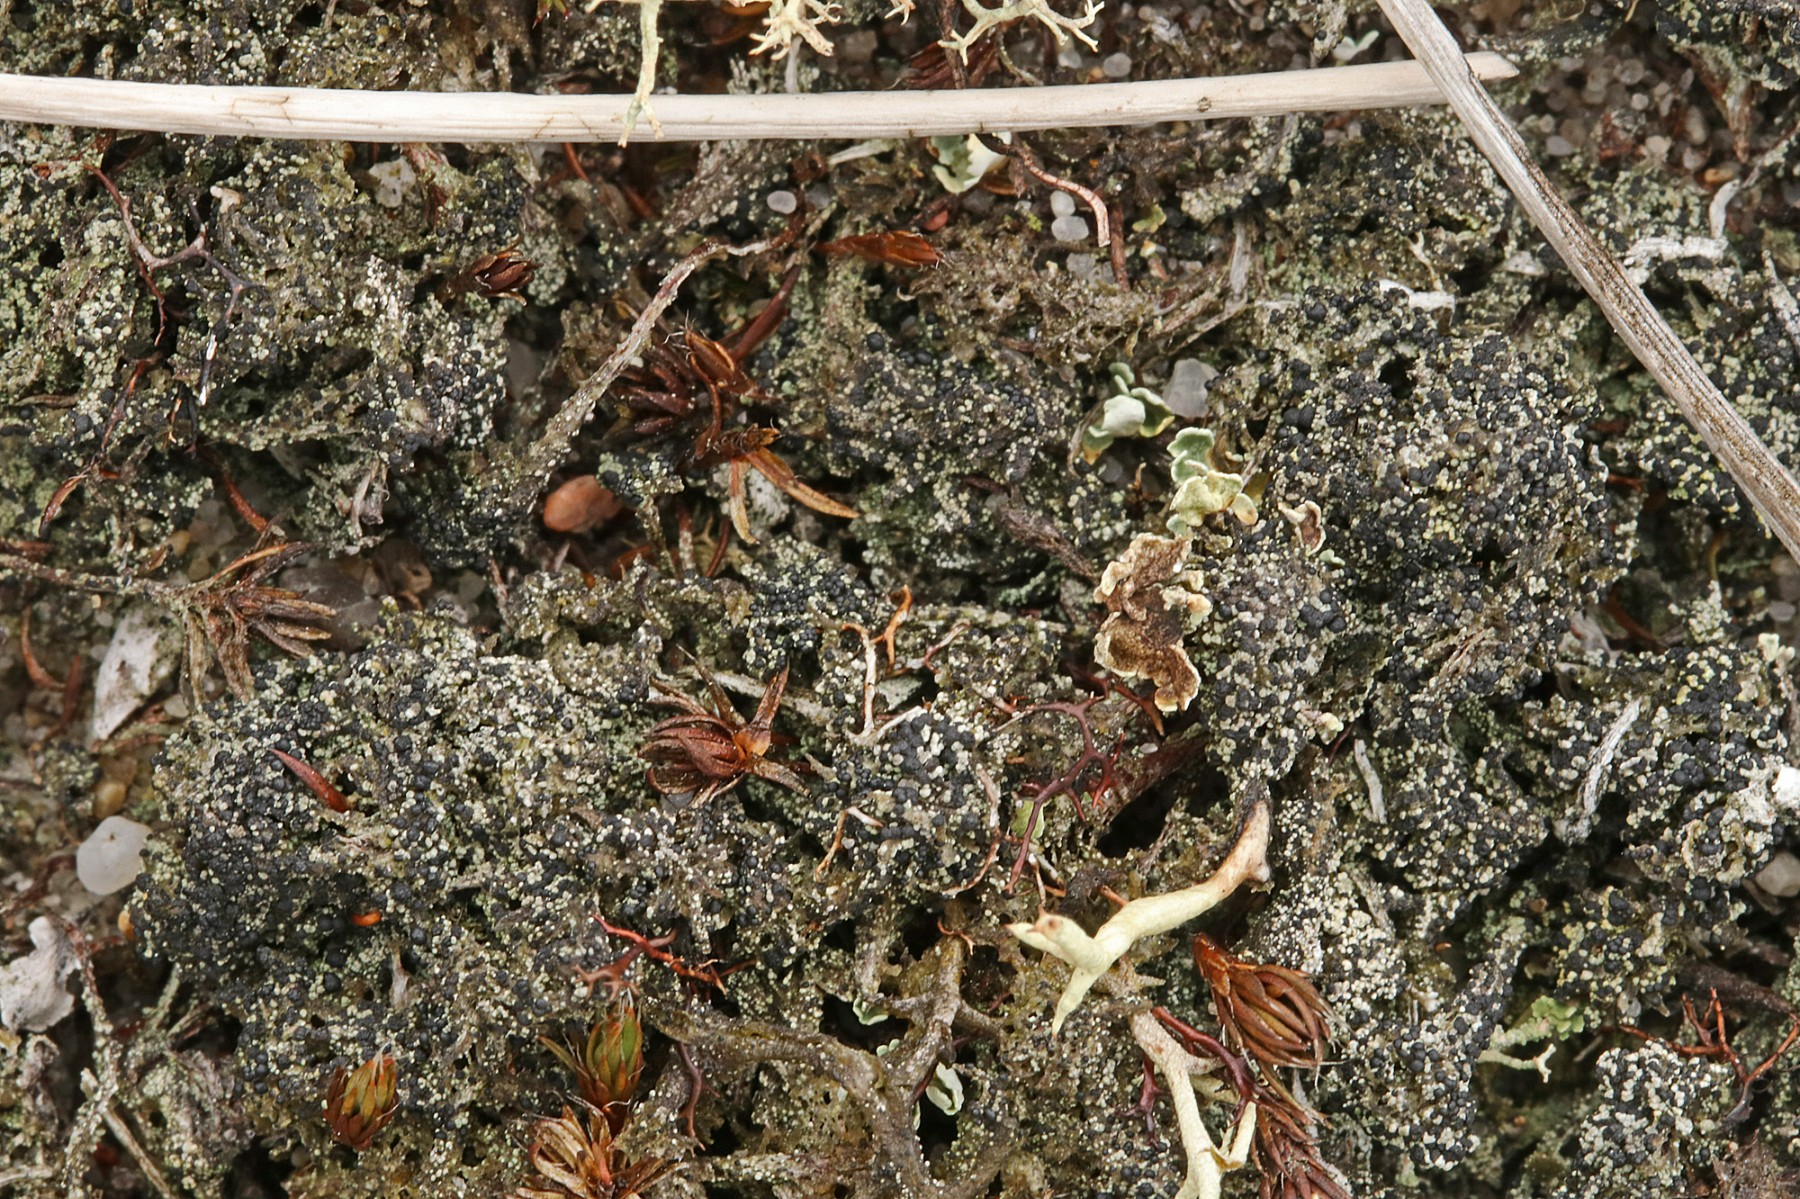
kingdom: Fungi
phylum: Ascomycota
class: Lecanoromycetes
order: Lecanorales
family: Byssolomataceae
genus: Micarea
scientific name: Micarea lignaria
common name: tørve-knaplav
